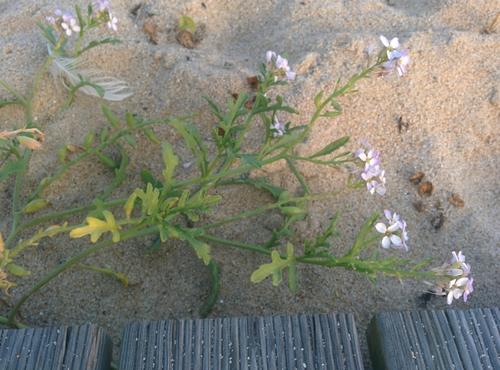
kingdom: Plantae
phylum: Tracheophyta
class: Magnoliopsida
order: Brassicales
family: Brassicaceae
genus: Cakile
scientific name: Cakile maritima
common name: Sea rocket
